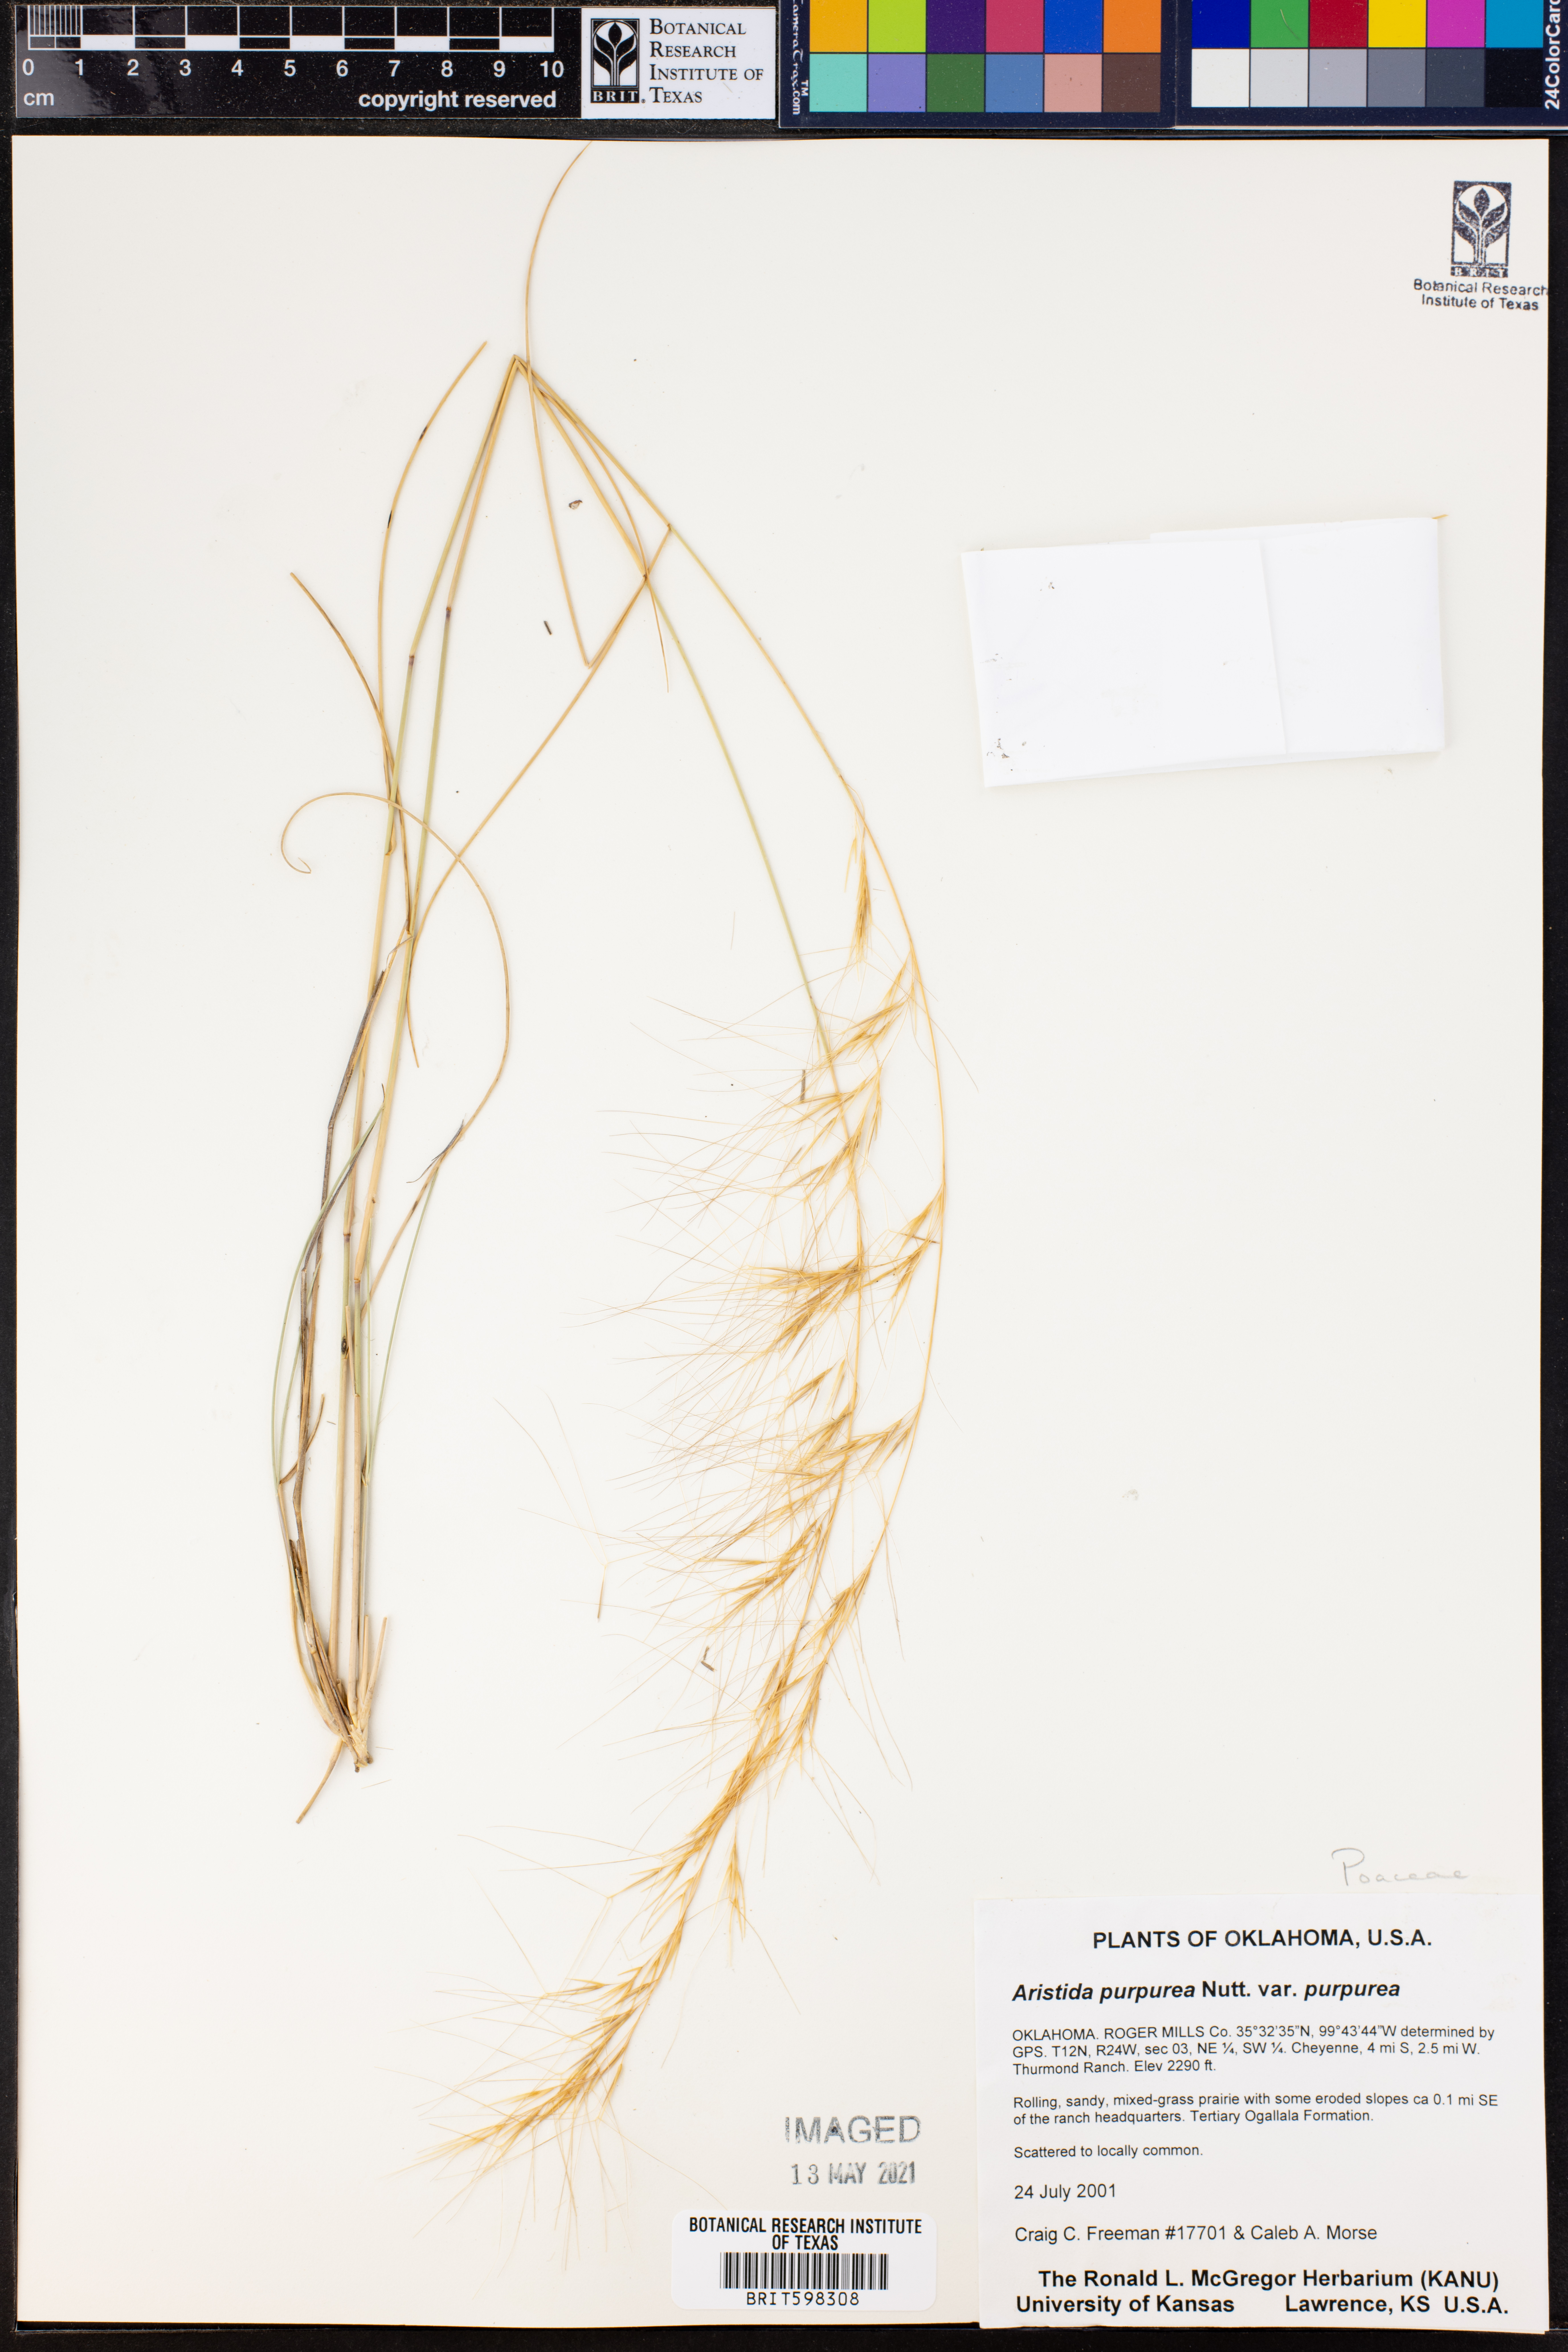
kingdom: Plantae
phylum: Tracheophyta
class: Liliopsida
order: Poales
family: Poaceae
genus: Aristida
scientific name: Aristida purpurea
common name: Purple threeawn
